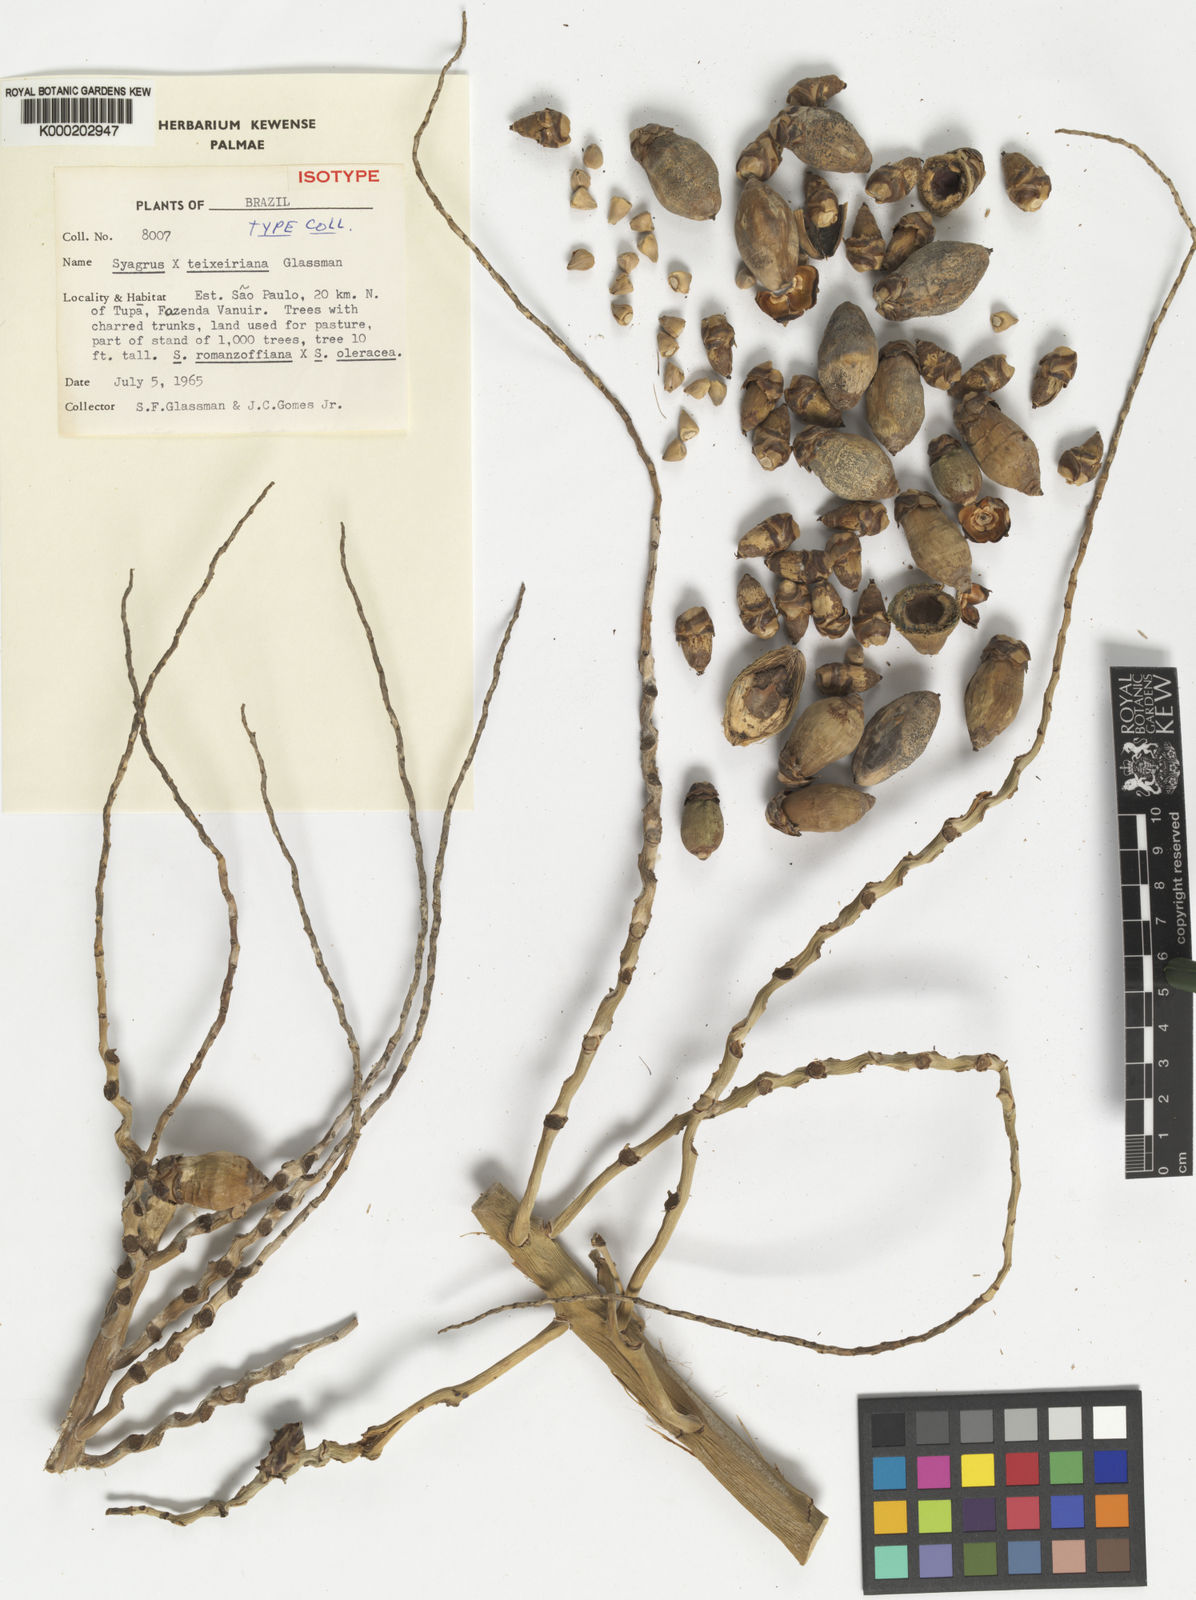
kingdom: Plantae
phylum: Tracheophyta
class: Liliopsida
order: Arecales
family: Arecaceae
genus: Syagrus
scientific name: Syagrus teixeirana
